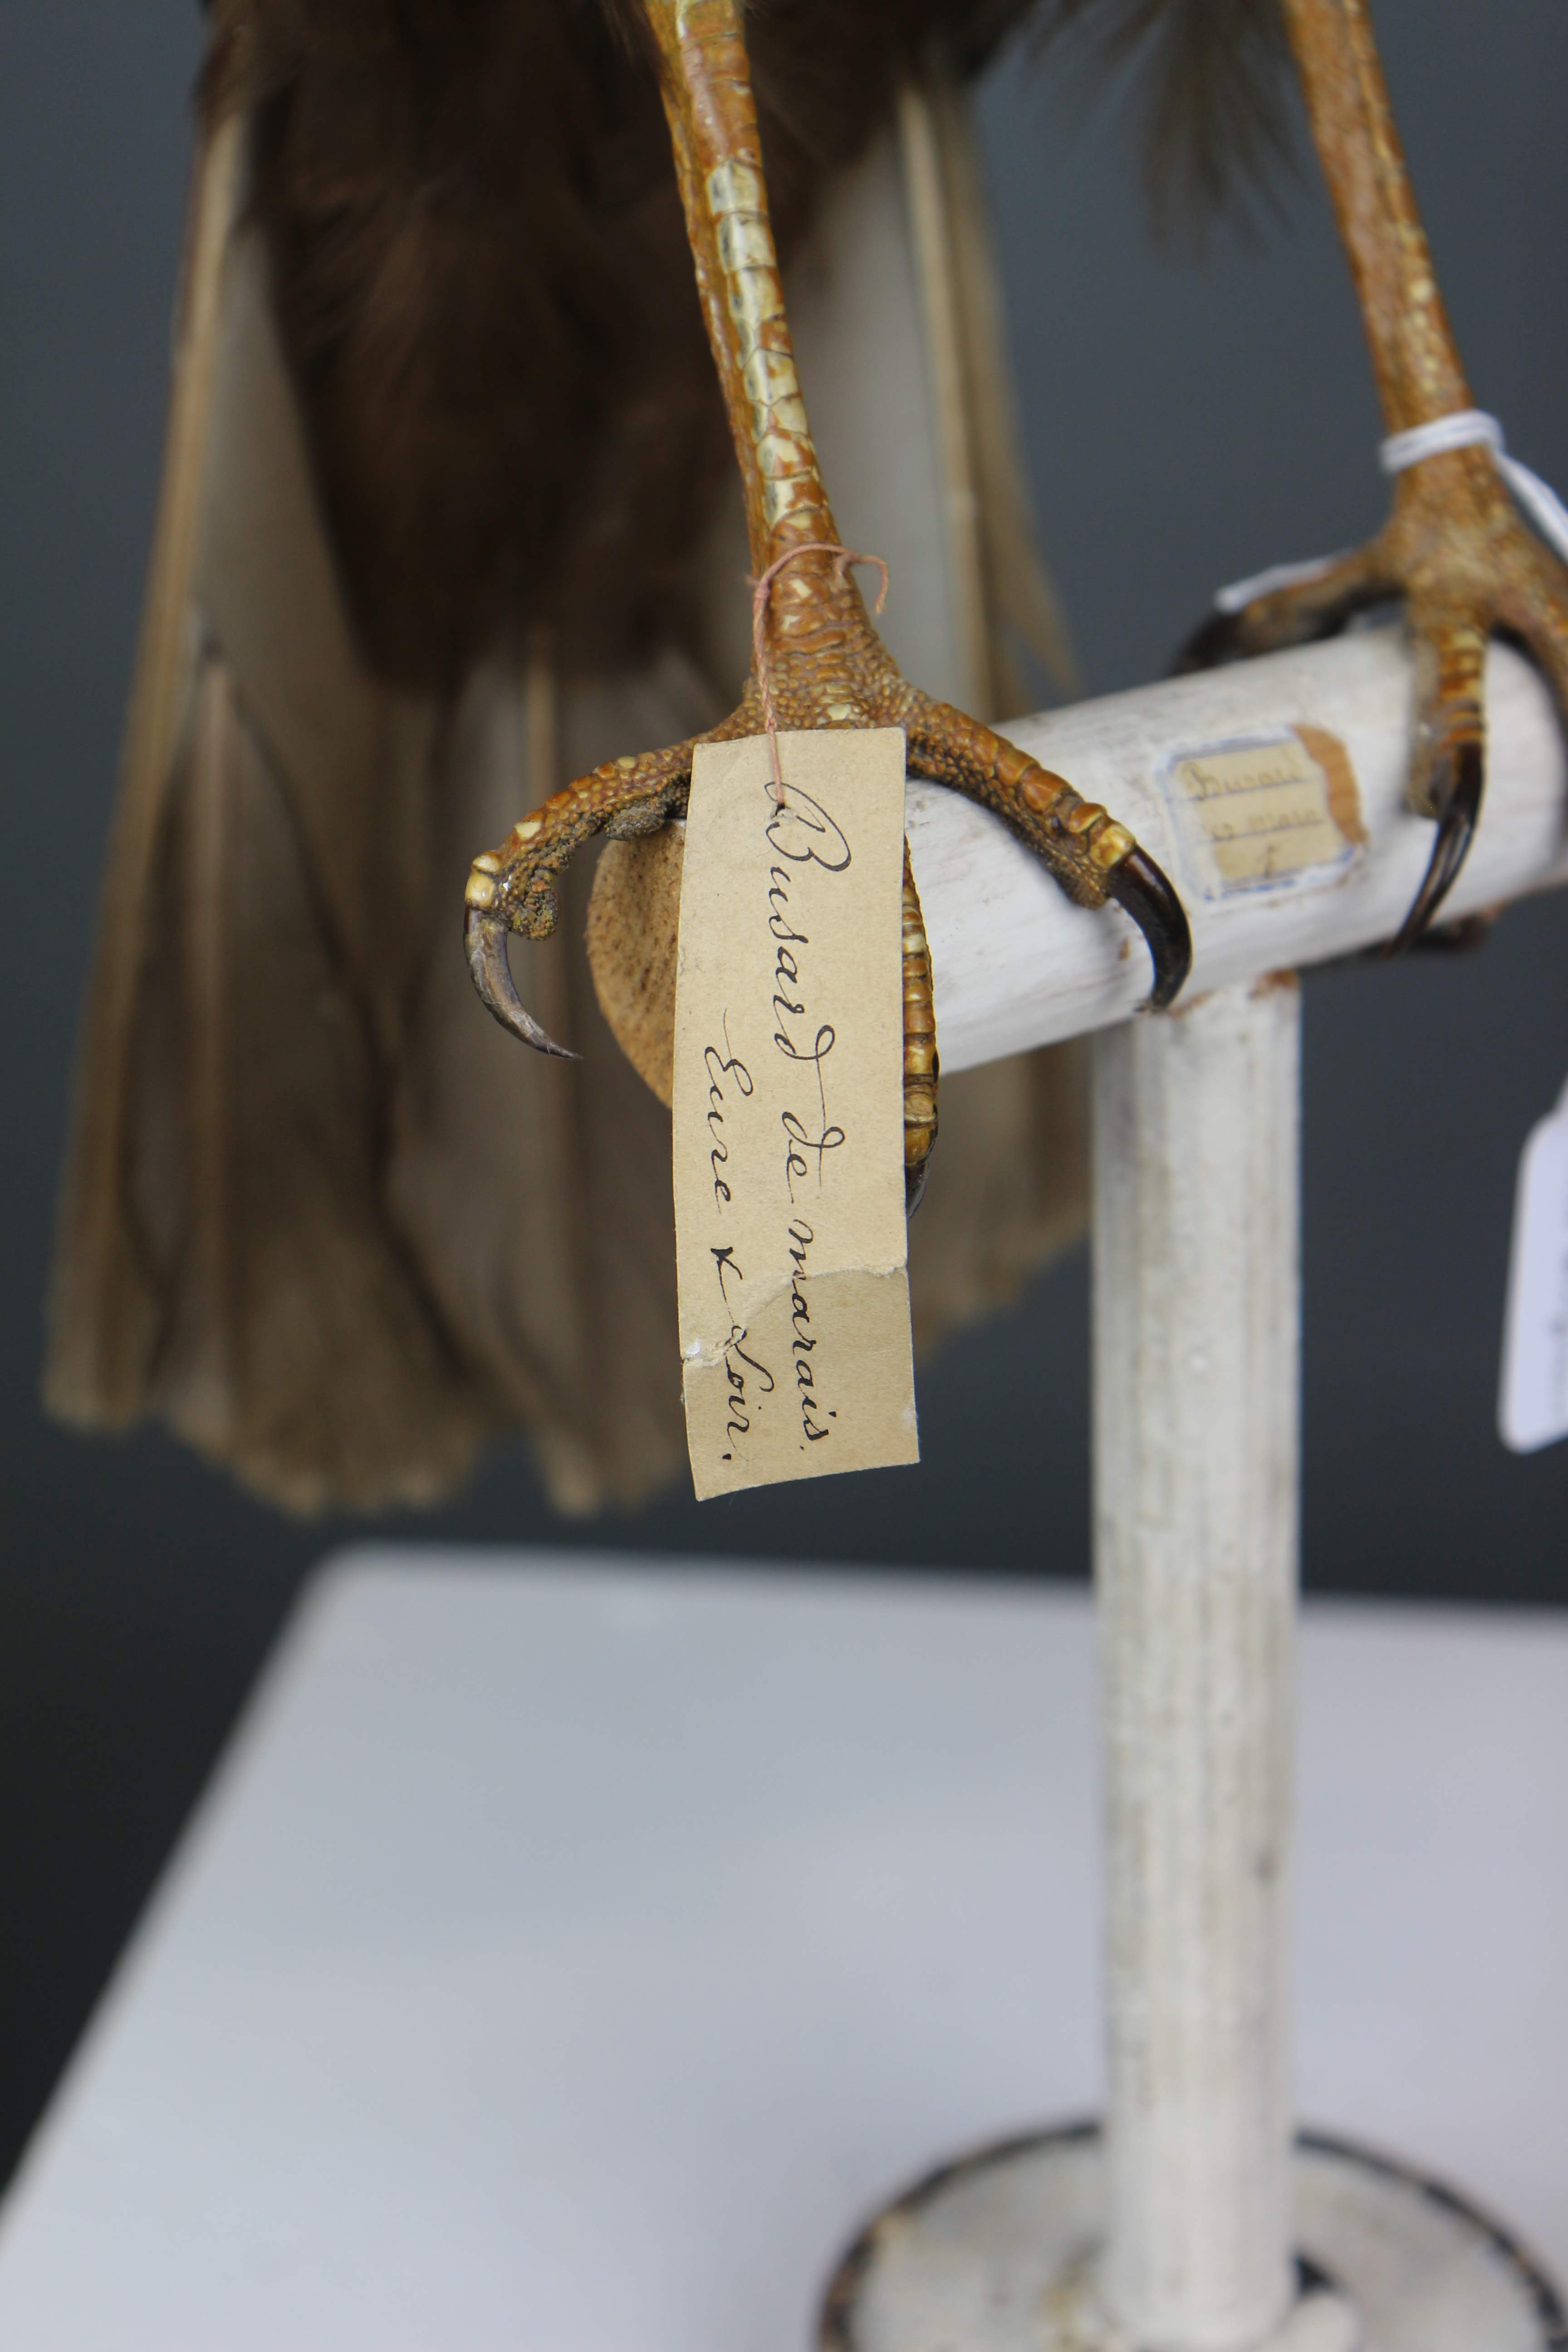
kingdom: Animalia
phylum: Chordata
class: Aves
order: Accipitriformes
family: Accipitridae
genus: Circus
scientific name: Circus aeruginosus
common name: Western marsh harrier
